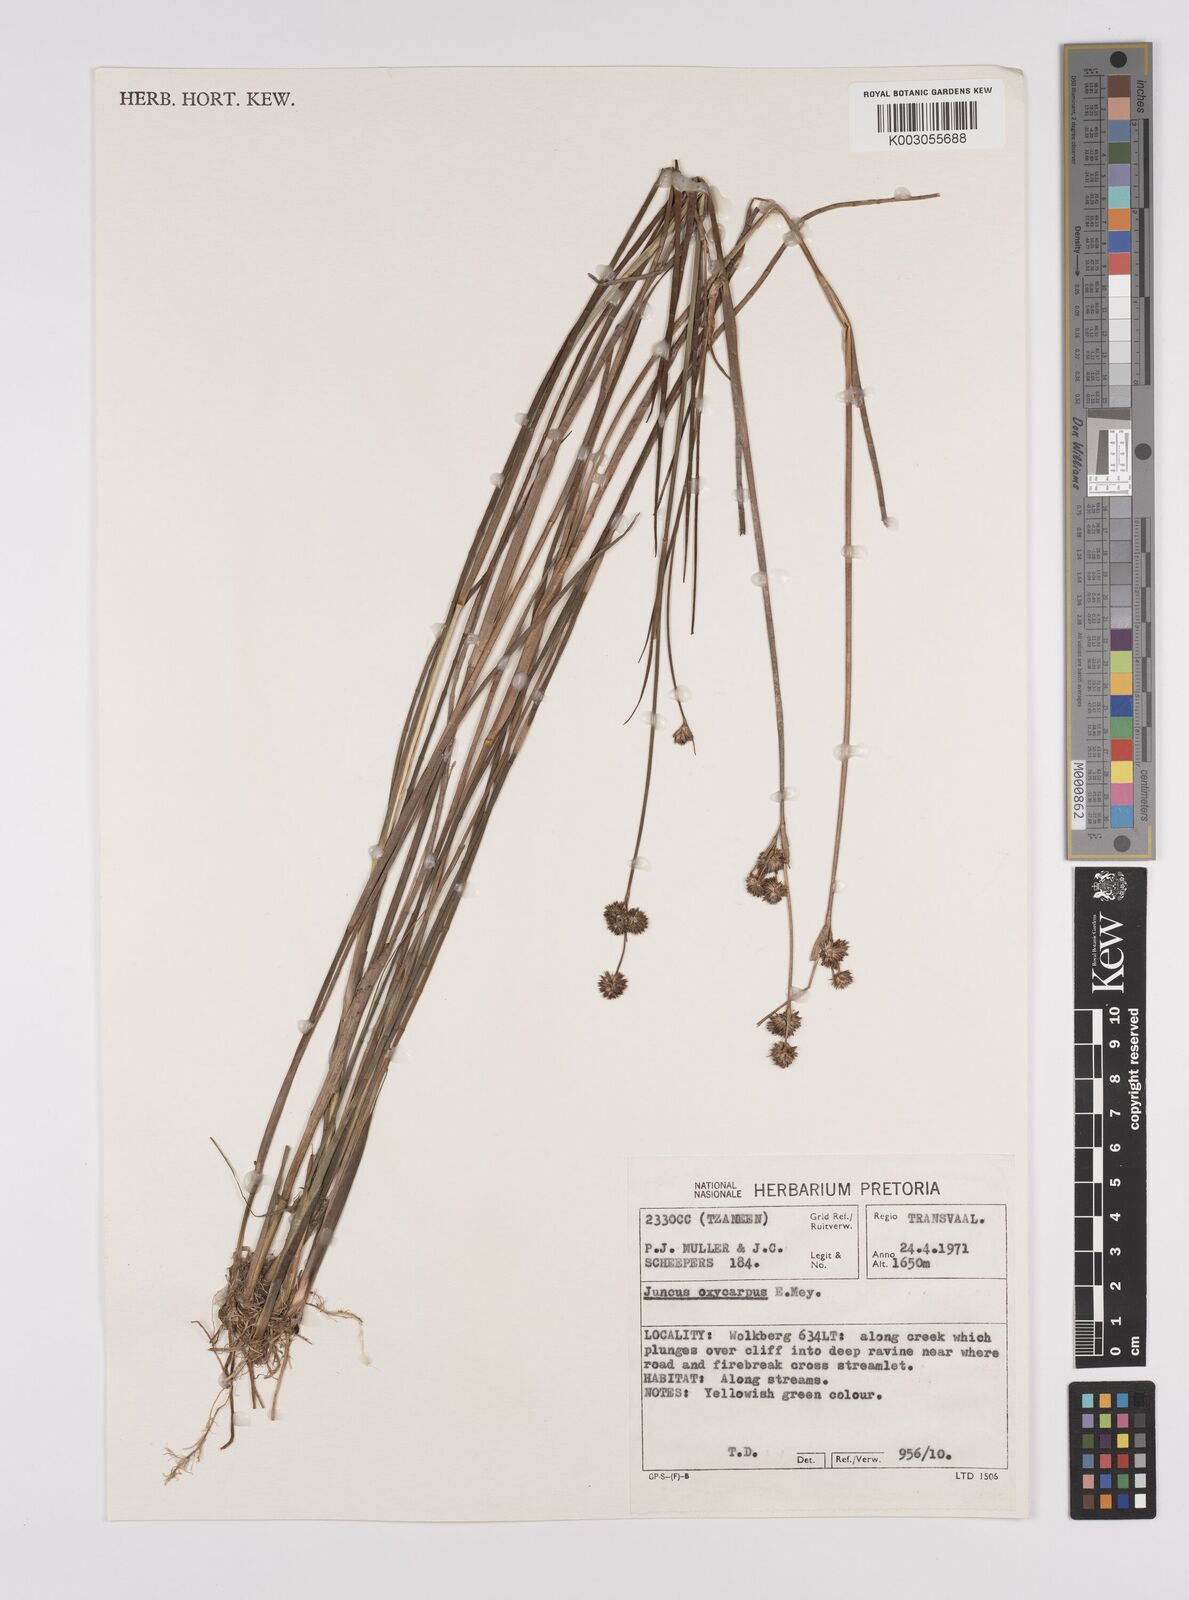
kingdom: Plantae
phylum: Tracheophyta
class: Liliopsida
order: Poales
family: Juncaceae
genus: Juncus
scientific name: Juncus oxycarpus
